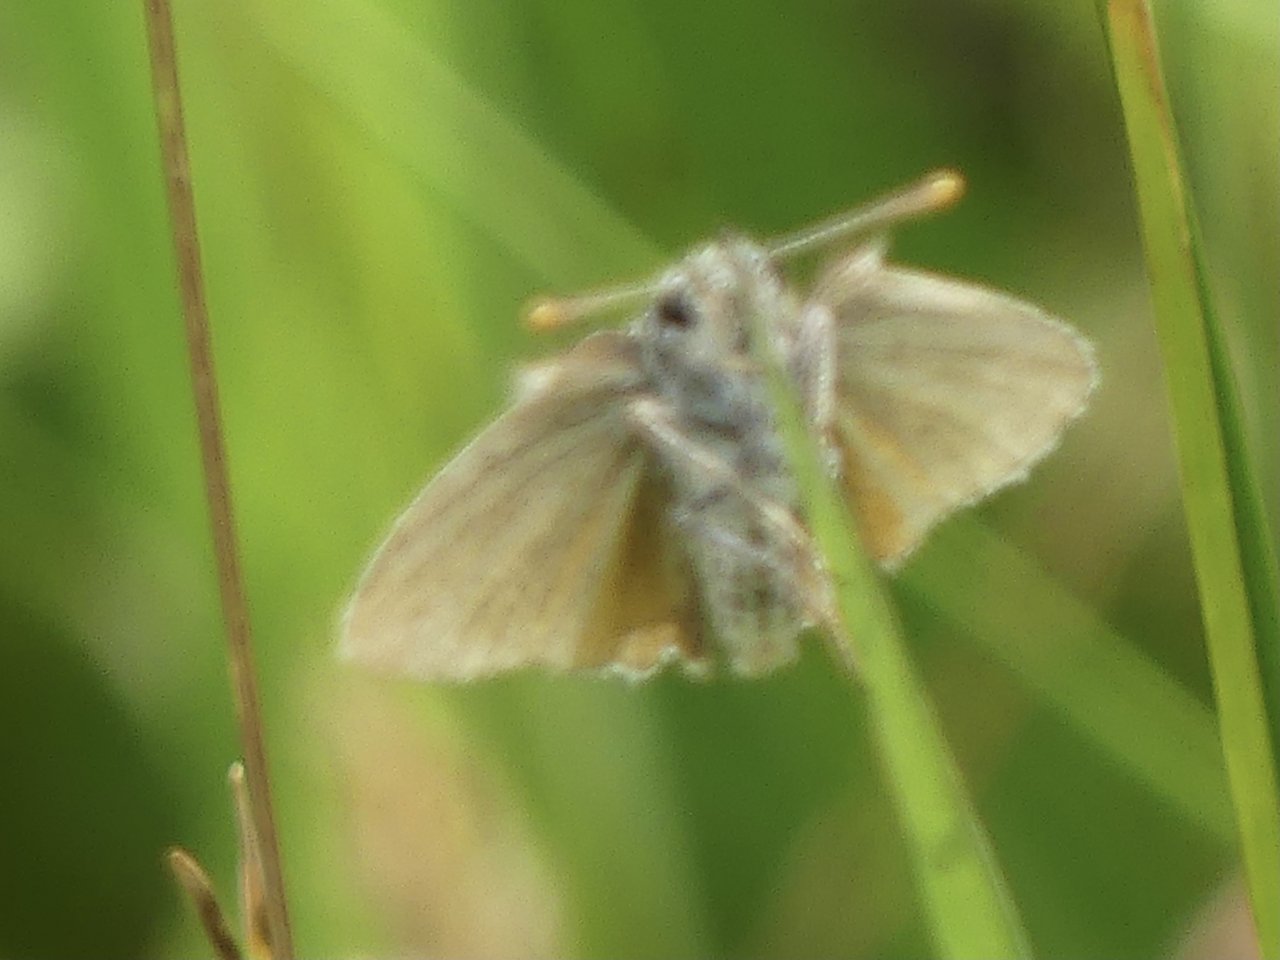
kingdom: Animalia
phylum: Arthropoda
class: Insecta
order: Lepidoptera
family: Hesperiidae
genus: Oarisma
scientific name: Oarisma garita
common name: Garita Skipperling
